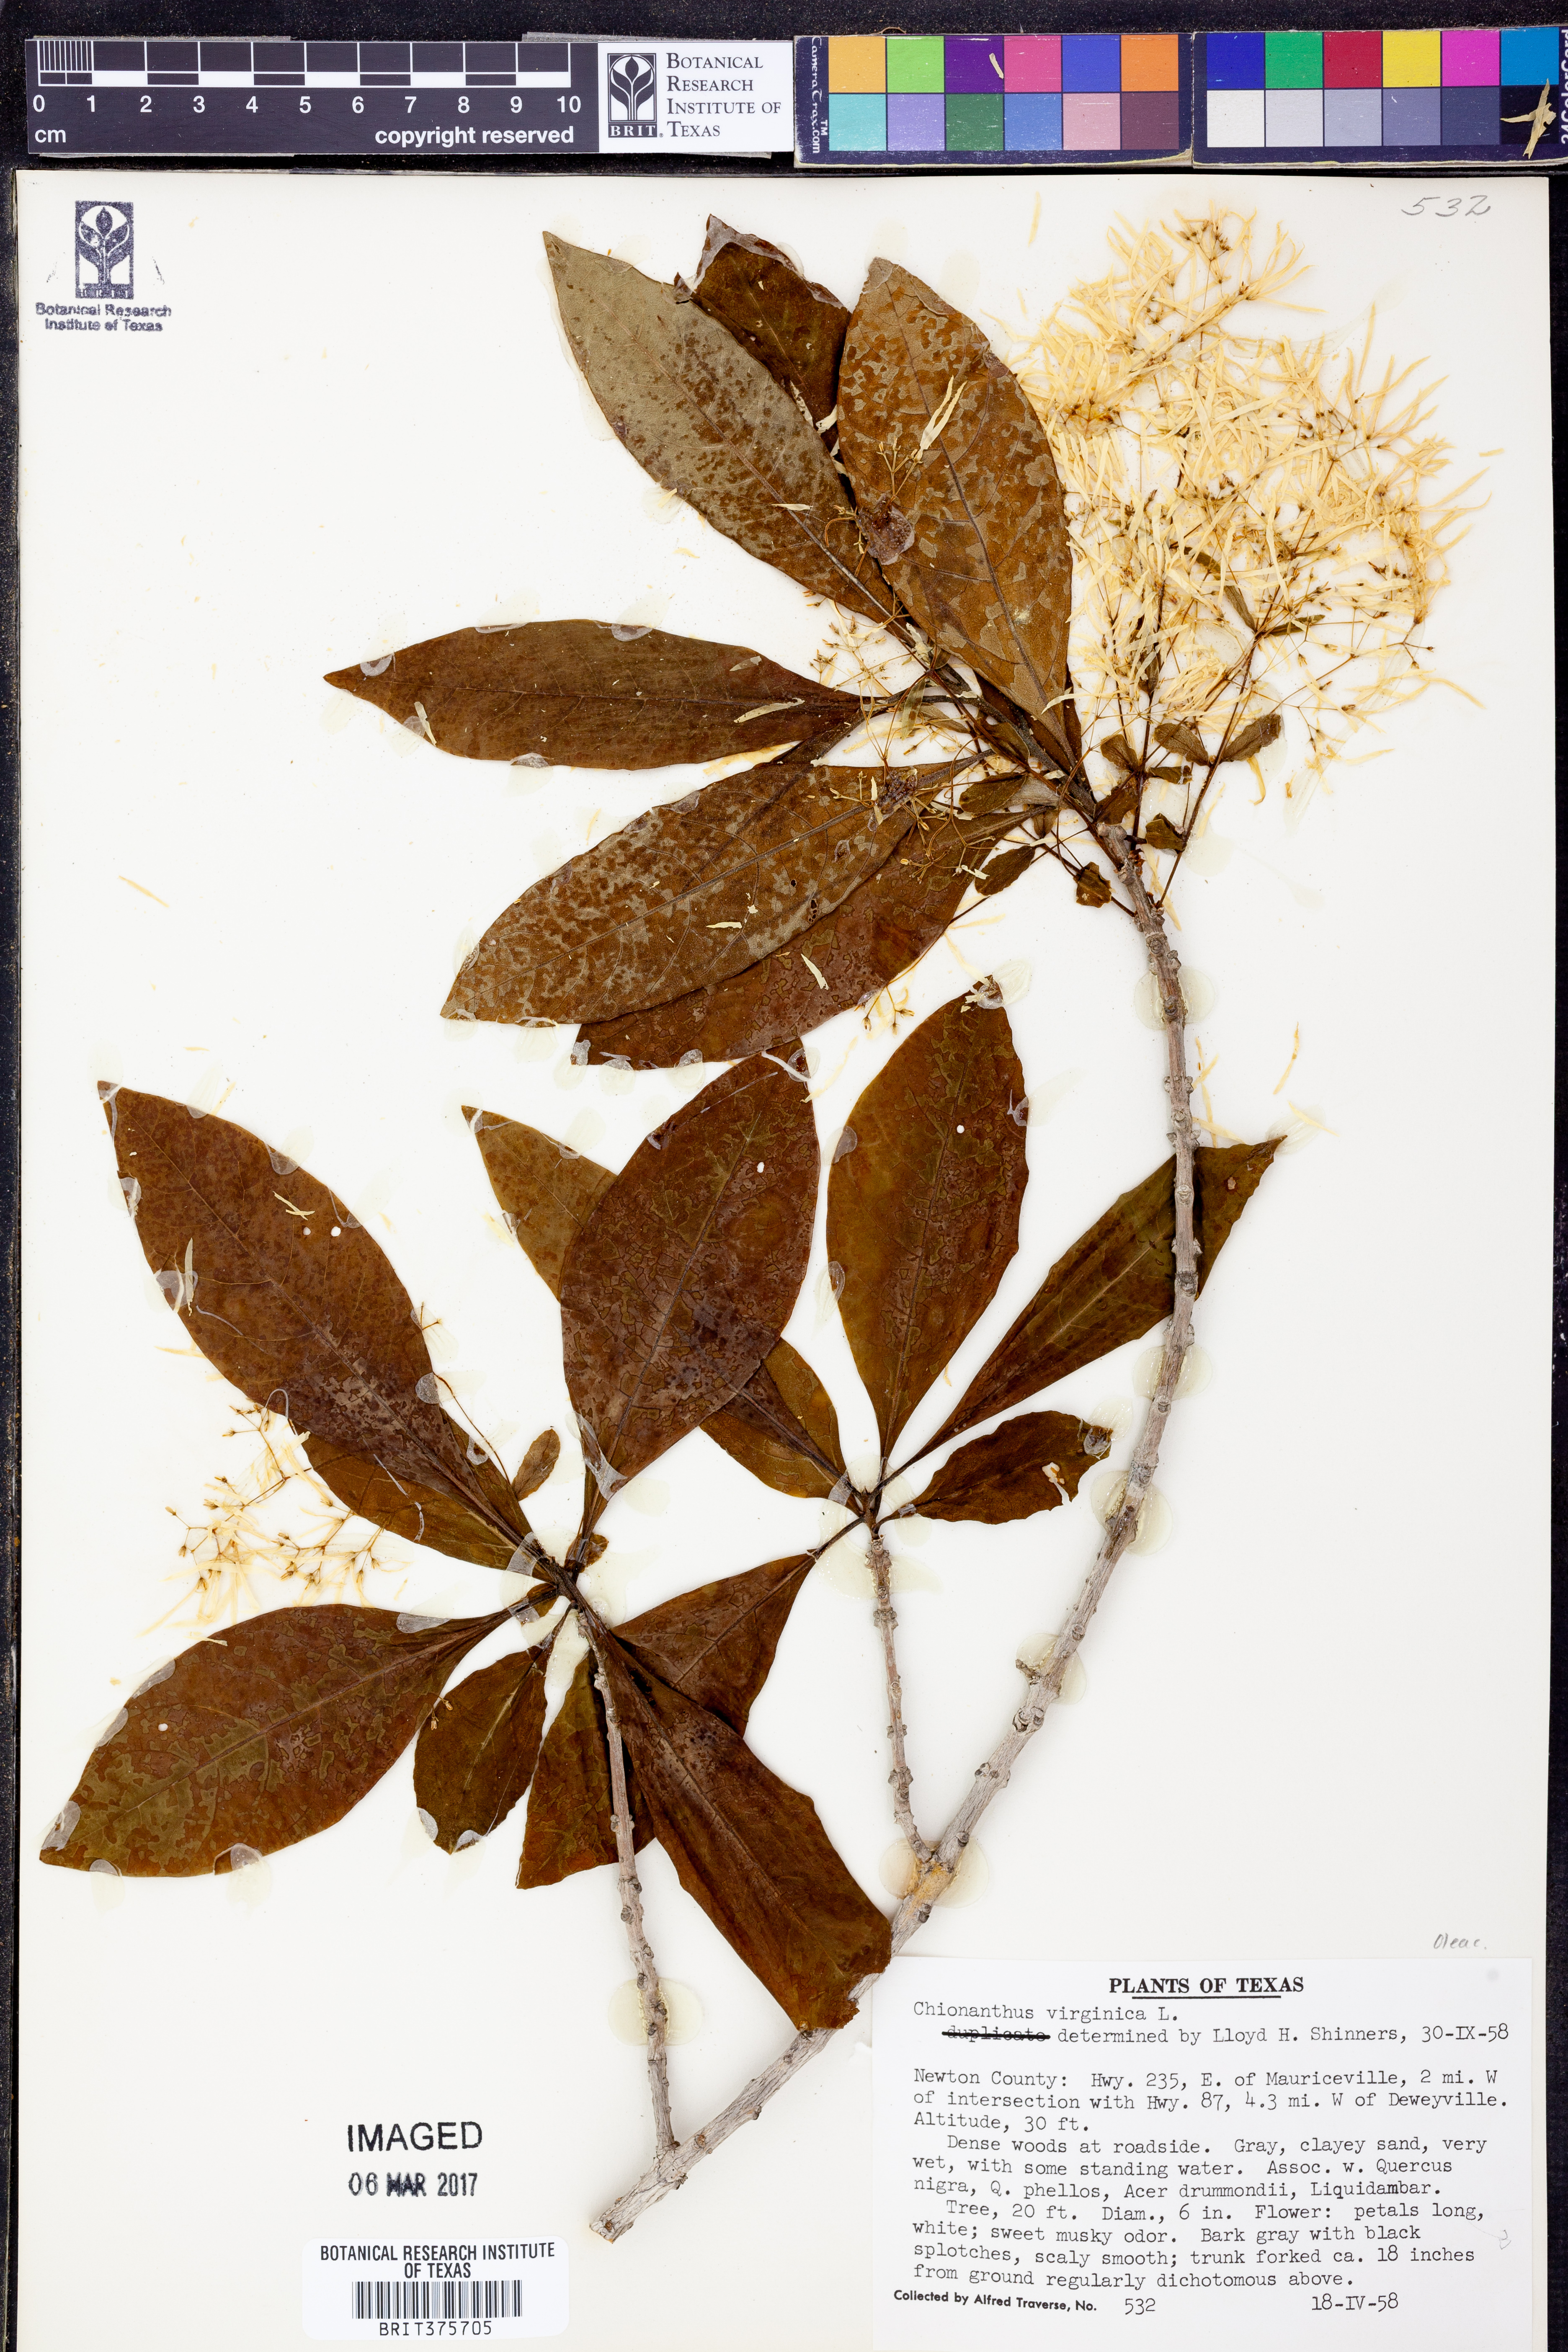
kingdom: Plantae
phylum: Tracheophyta
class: Magnoliopsida
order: Lamiales
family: Oleaceae
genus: Chionanthus
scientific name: Chionanthus virginicus
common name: American fringetree
